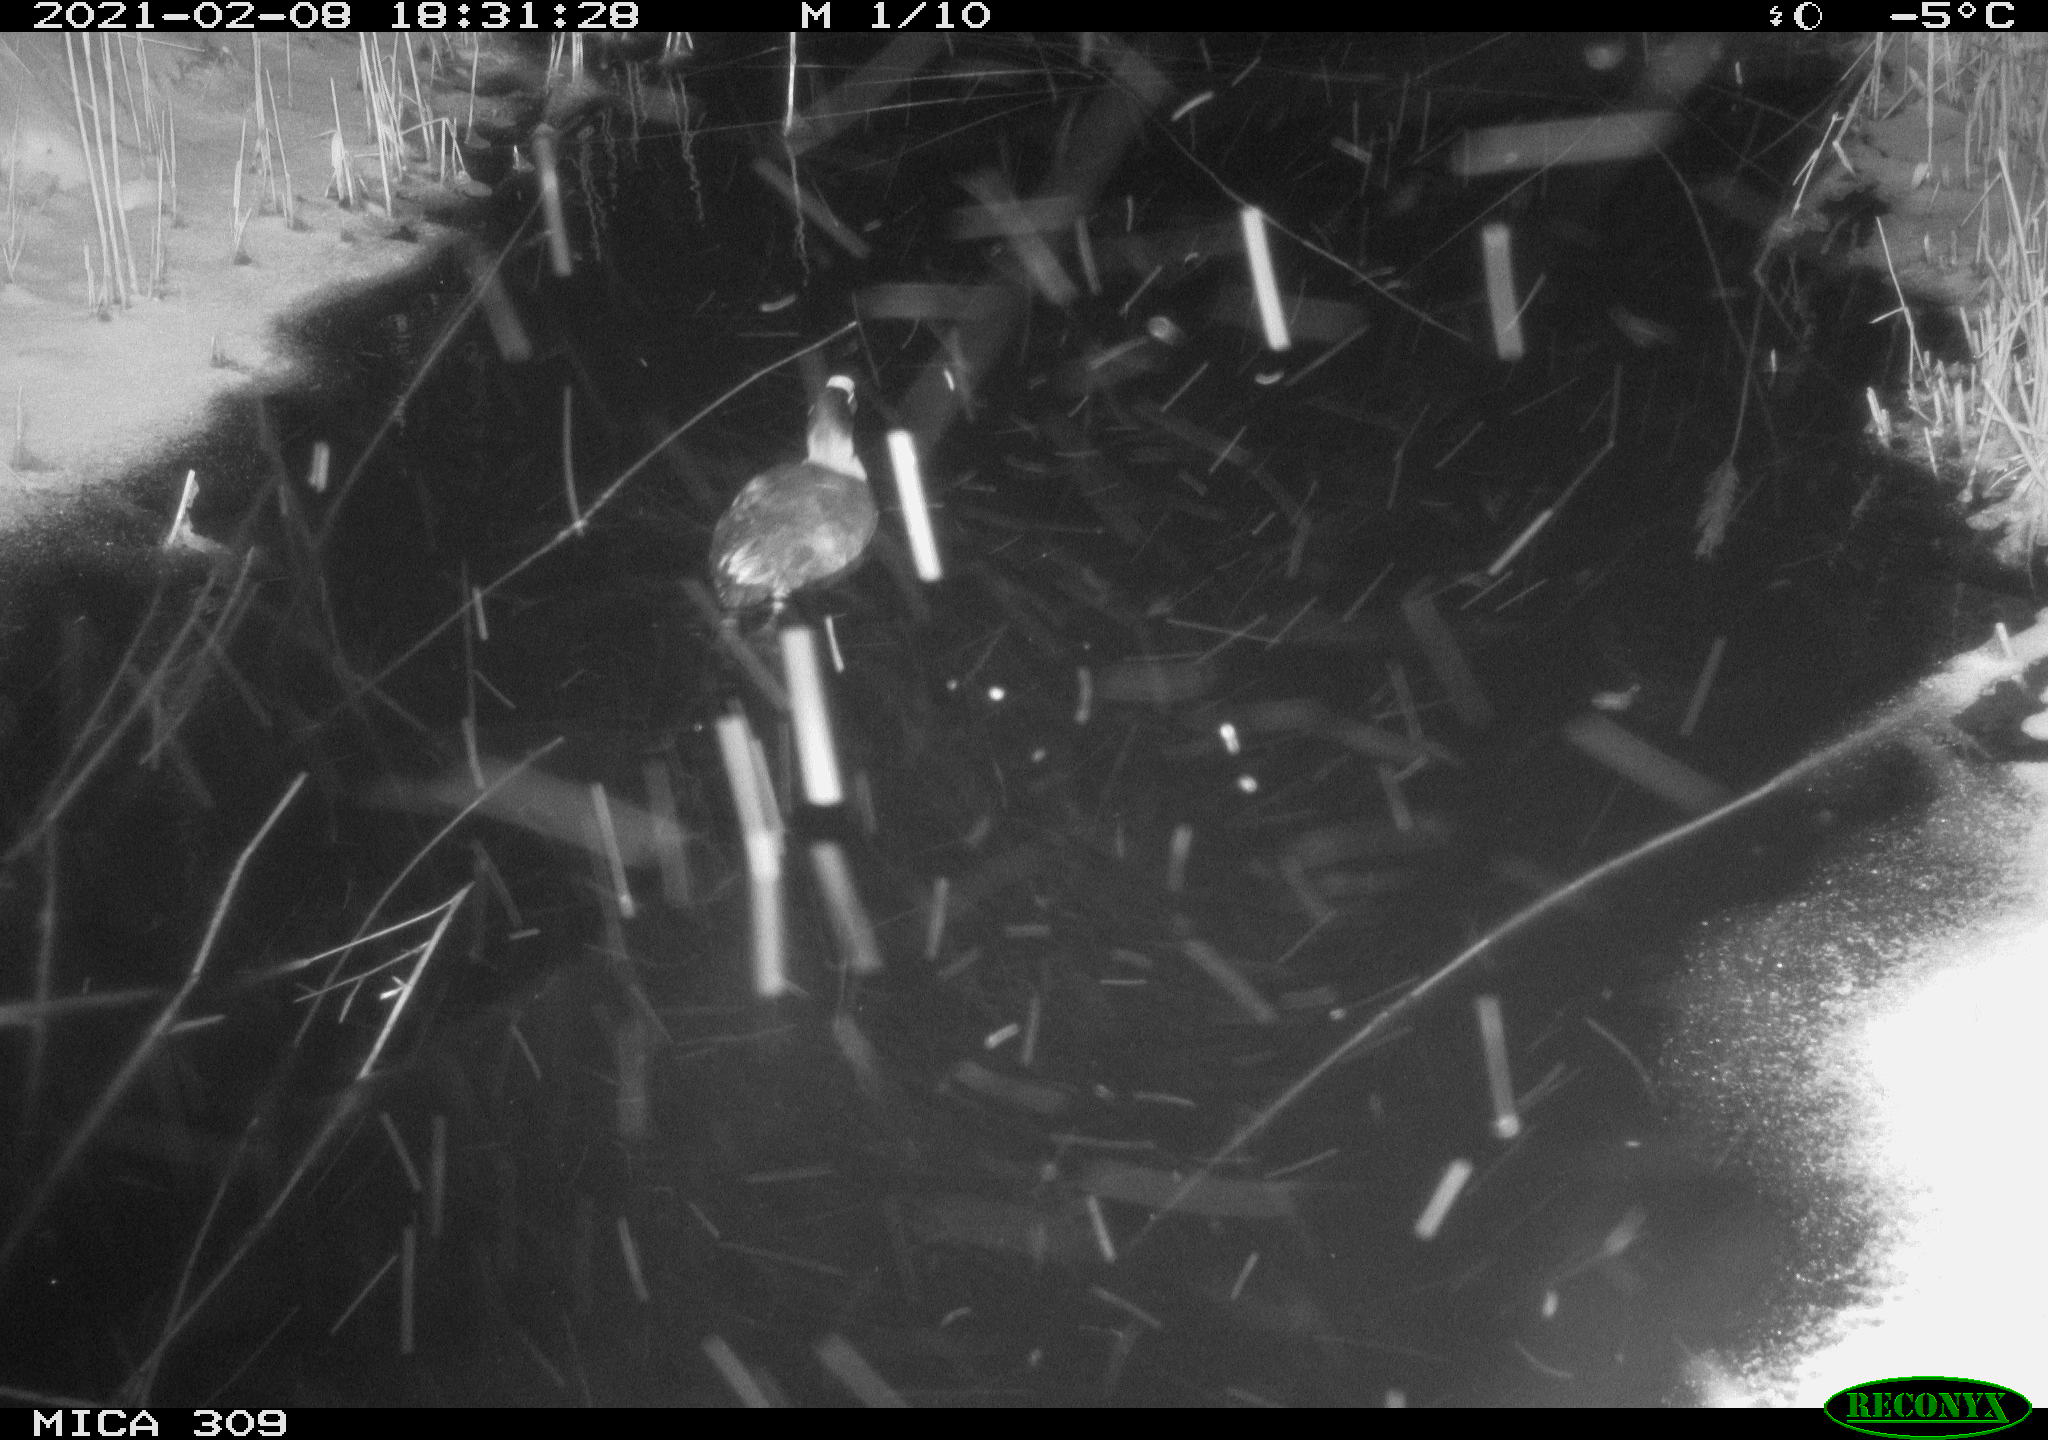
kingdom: Animalia
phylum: Chordata
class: Aves
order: Gruiformes
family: Rallidae
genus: Fulica
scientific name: Fulica atra
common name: Eurasian coot
